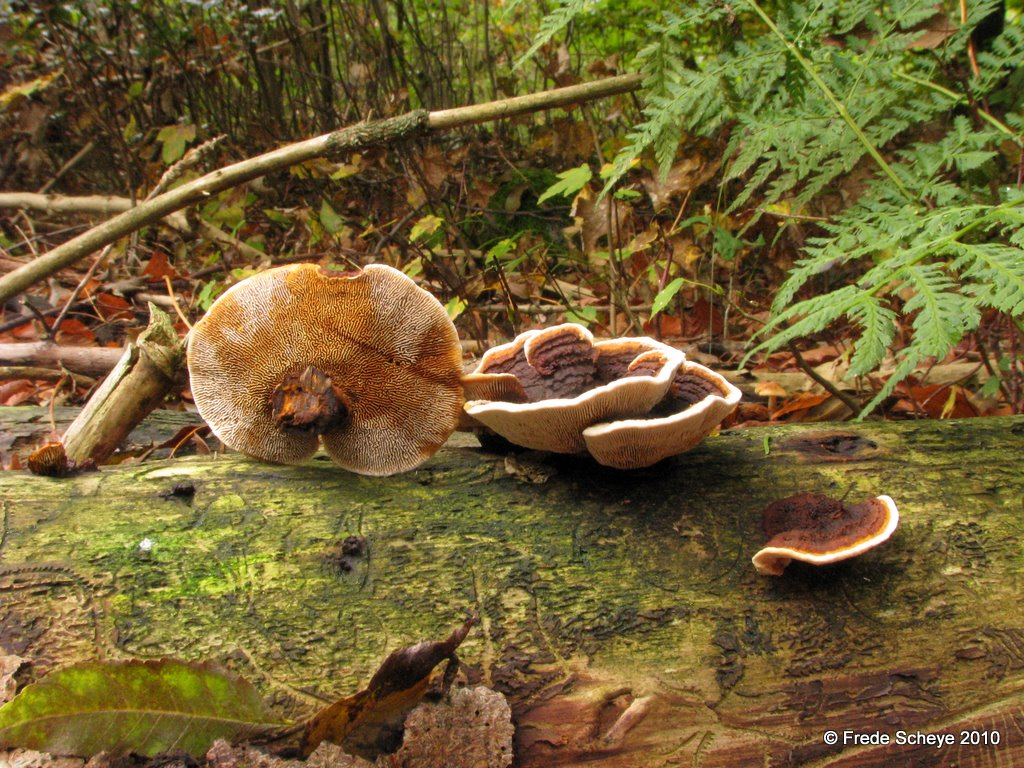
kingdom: Fungi
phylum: Basidiomycota
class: Agaricomycetes
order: Gloeophyllales
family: Gloeophyllaceae
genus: Gloeophyllum
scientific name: Gloeophyllum sepiarium
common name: fyrre-korkhat
